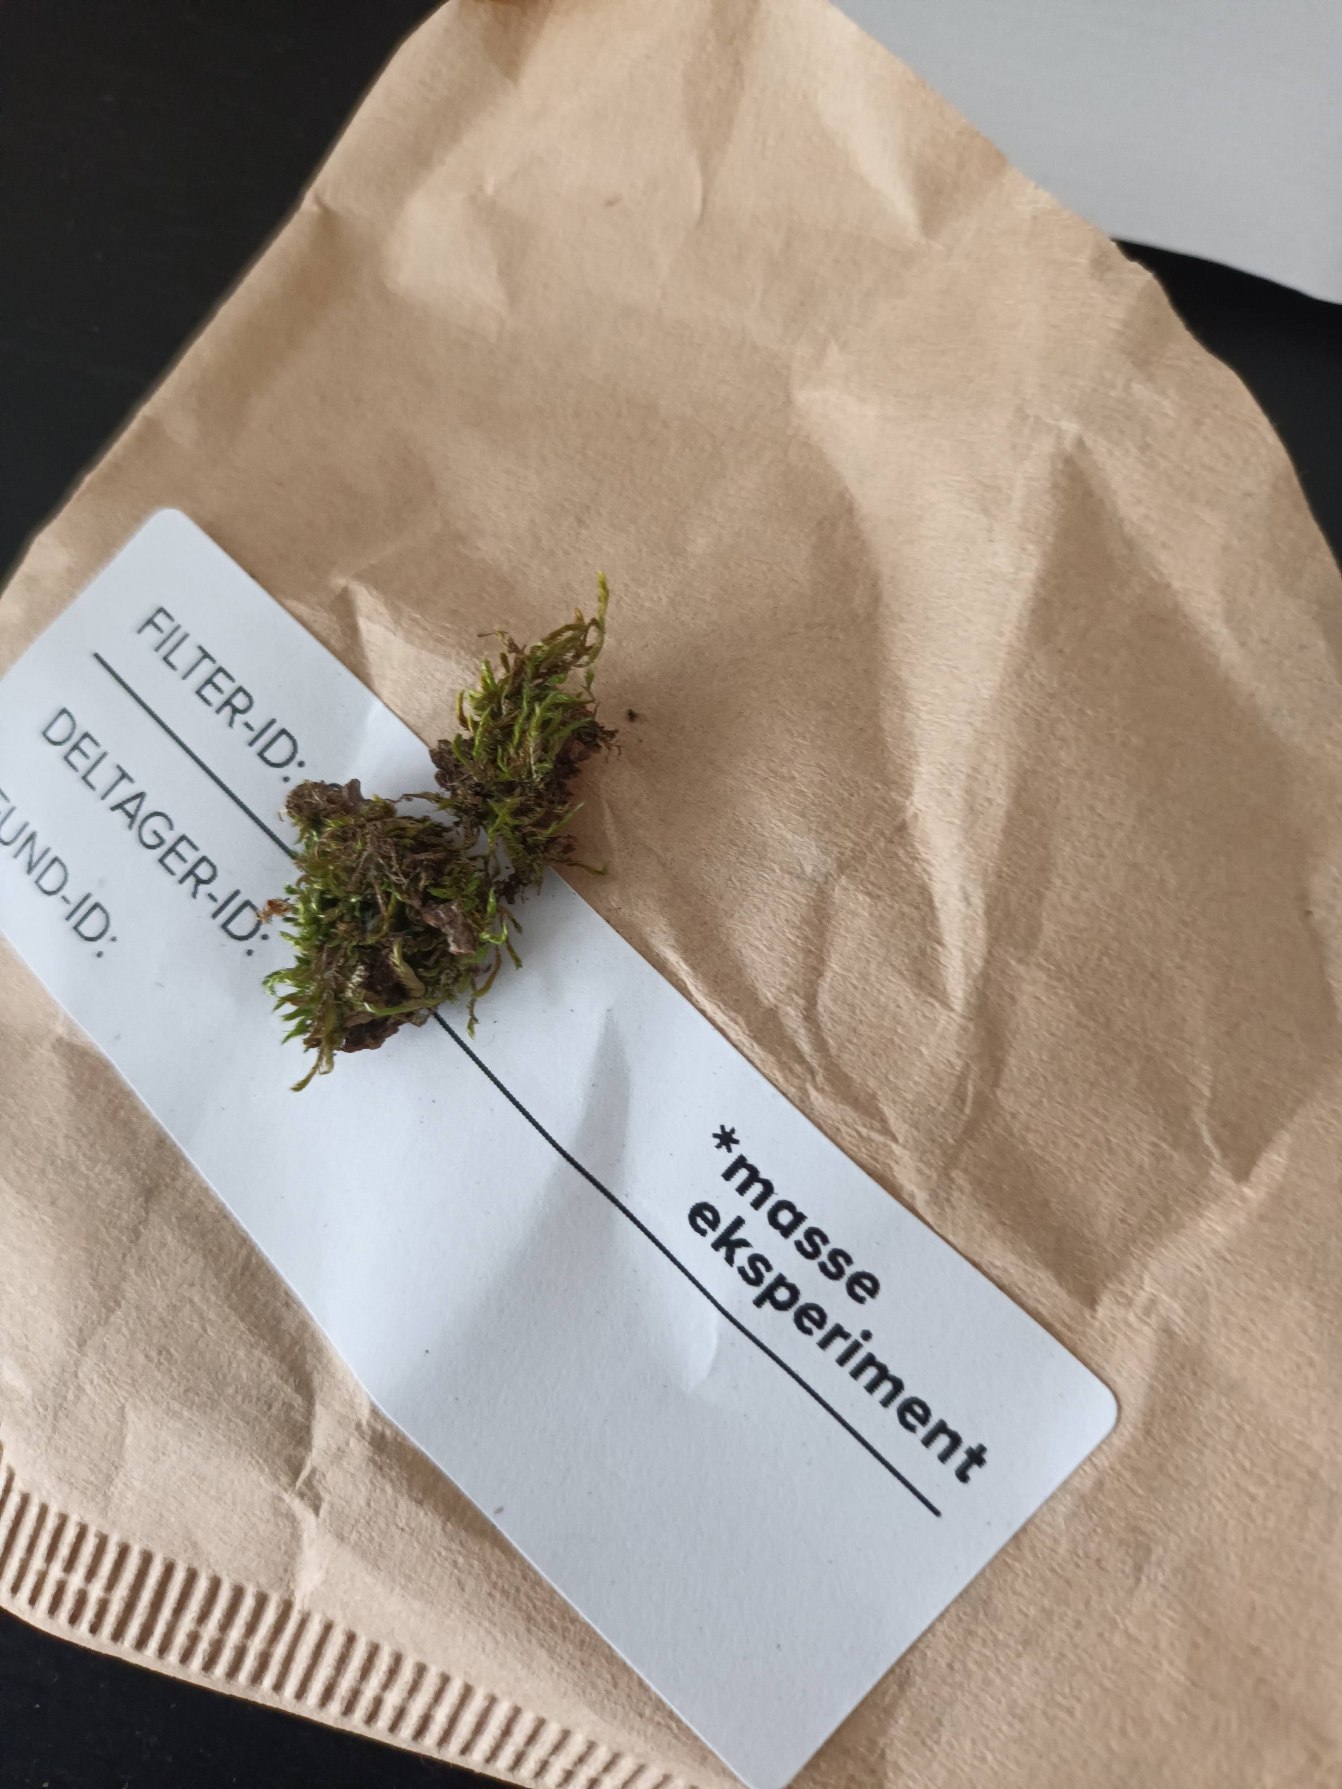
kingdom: Plantae
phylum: Bryophyta
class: Bryopsida
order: Hypnales
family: Hypnaceae
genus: Hypnum
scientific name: Hypnum
